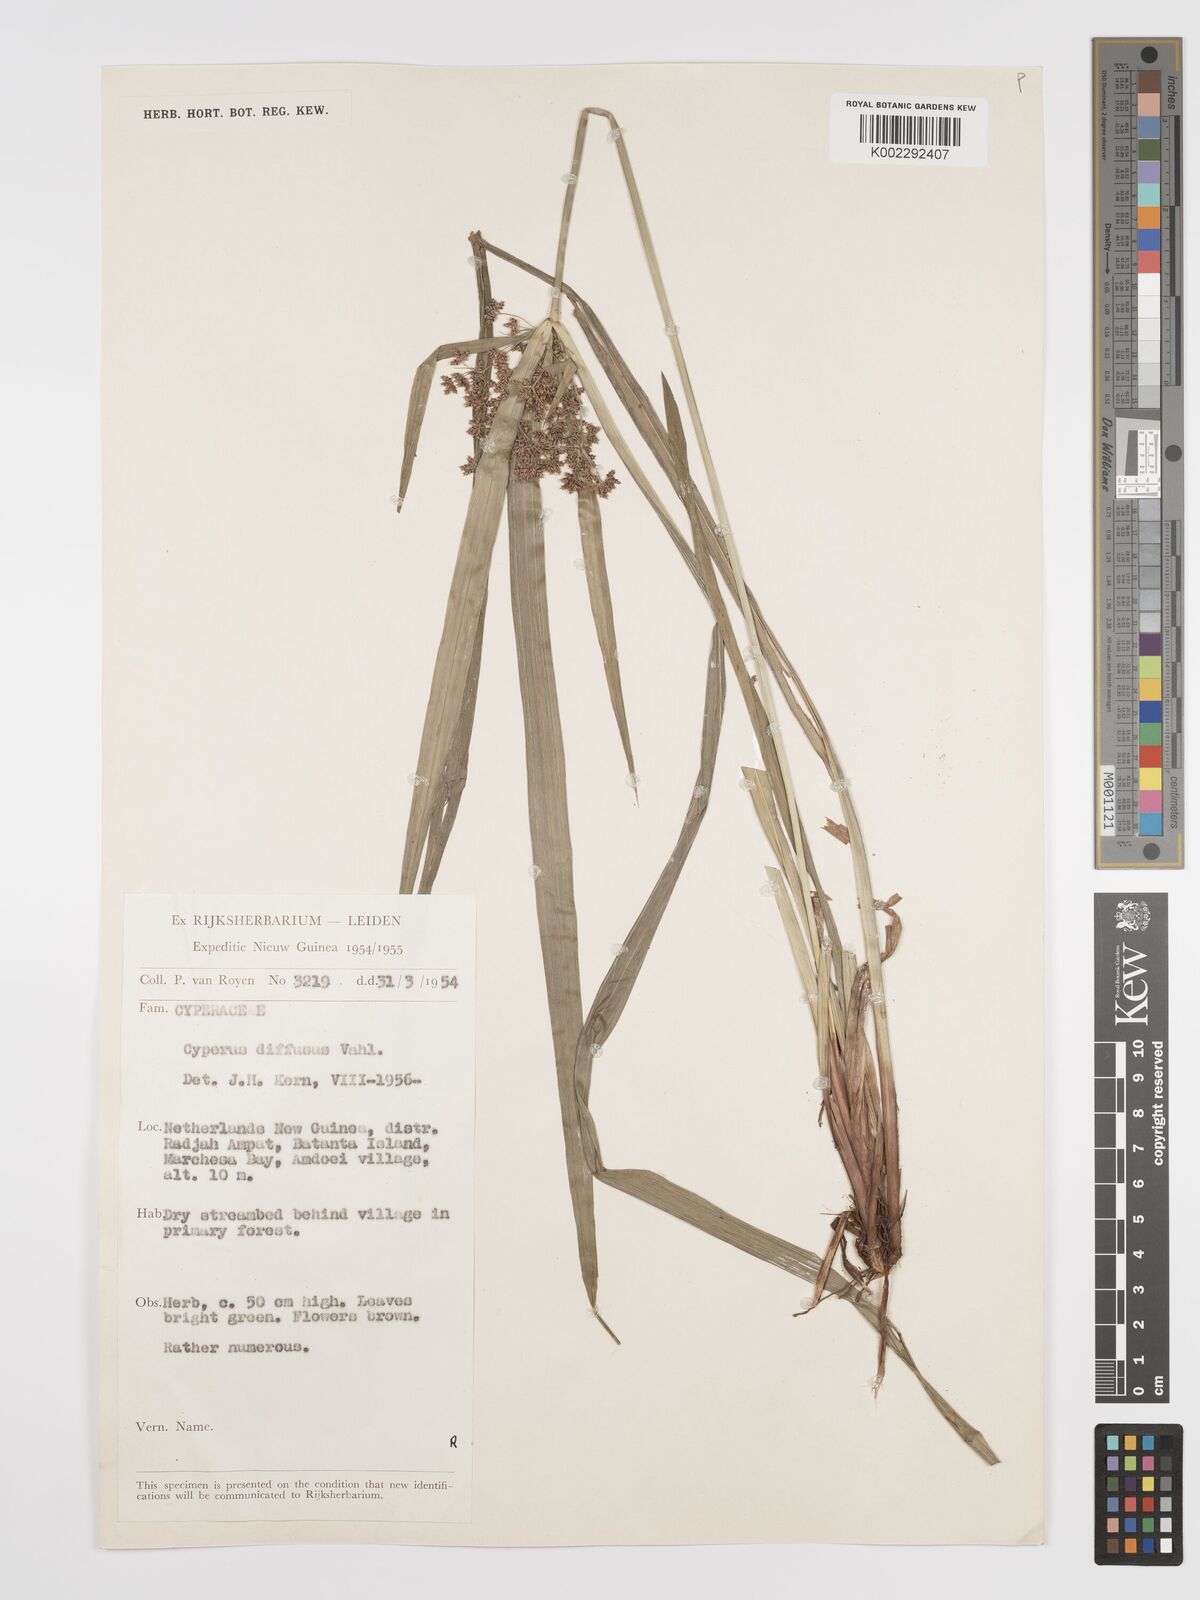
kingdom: Plantae
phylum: Tracheophyta
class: Liliopsida
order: Poales
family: Cyperaceae
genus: Cyperus
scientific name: Cyperus diffusus
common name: Dwarf umbrella grass
